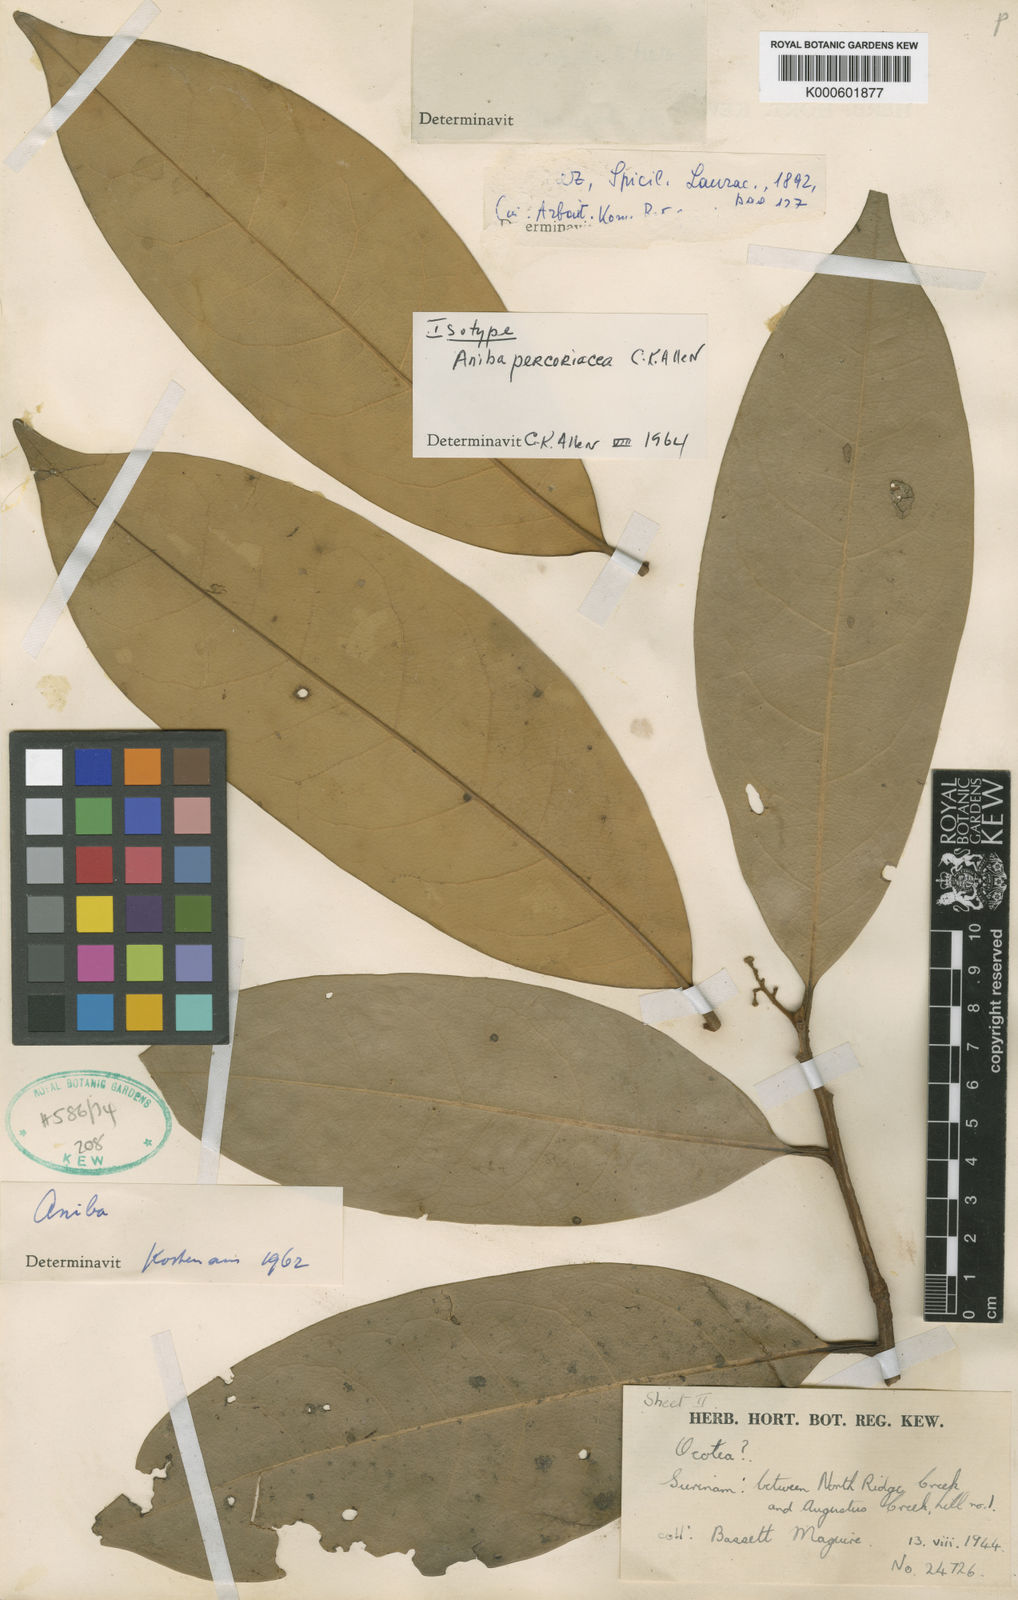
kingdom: Plantae
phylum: Tracheophyta
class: Magnoliopsida
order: Laurales
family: Lauraceae
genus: Aniba
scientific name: Aniba percoriacea
